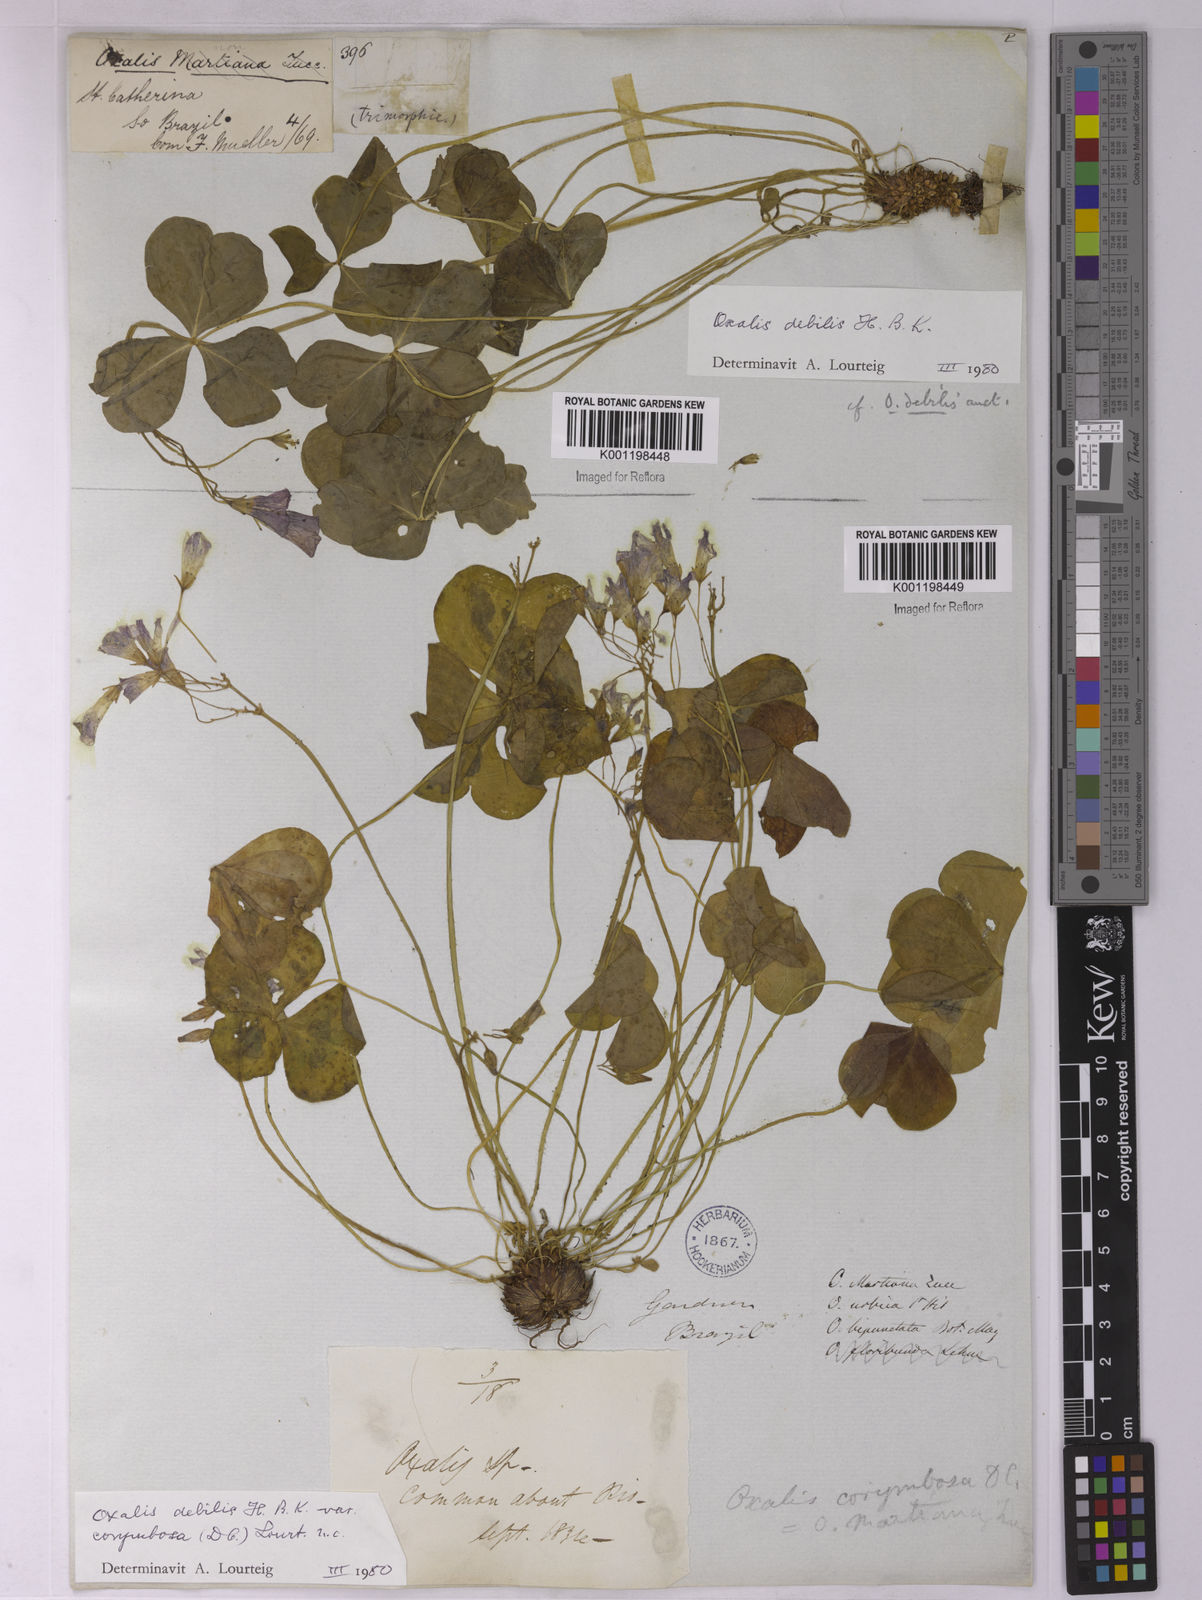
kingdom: Plantae
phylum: Tracheophyta
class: Magnoliopsida
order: Oxalidales
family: Oxalidaceae
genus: Oxalis
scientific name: Oxalis debilis
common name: Large-flowered pink-sorrel
